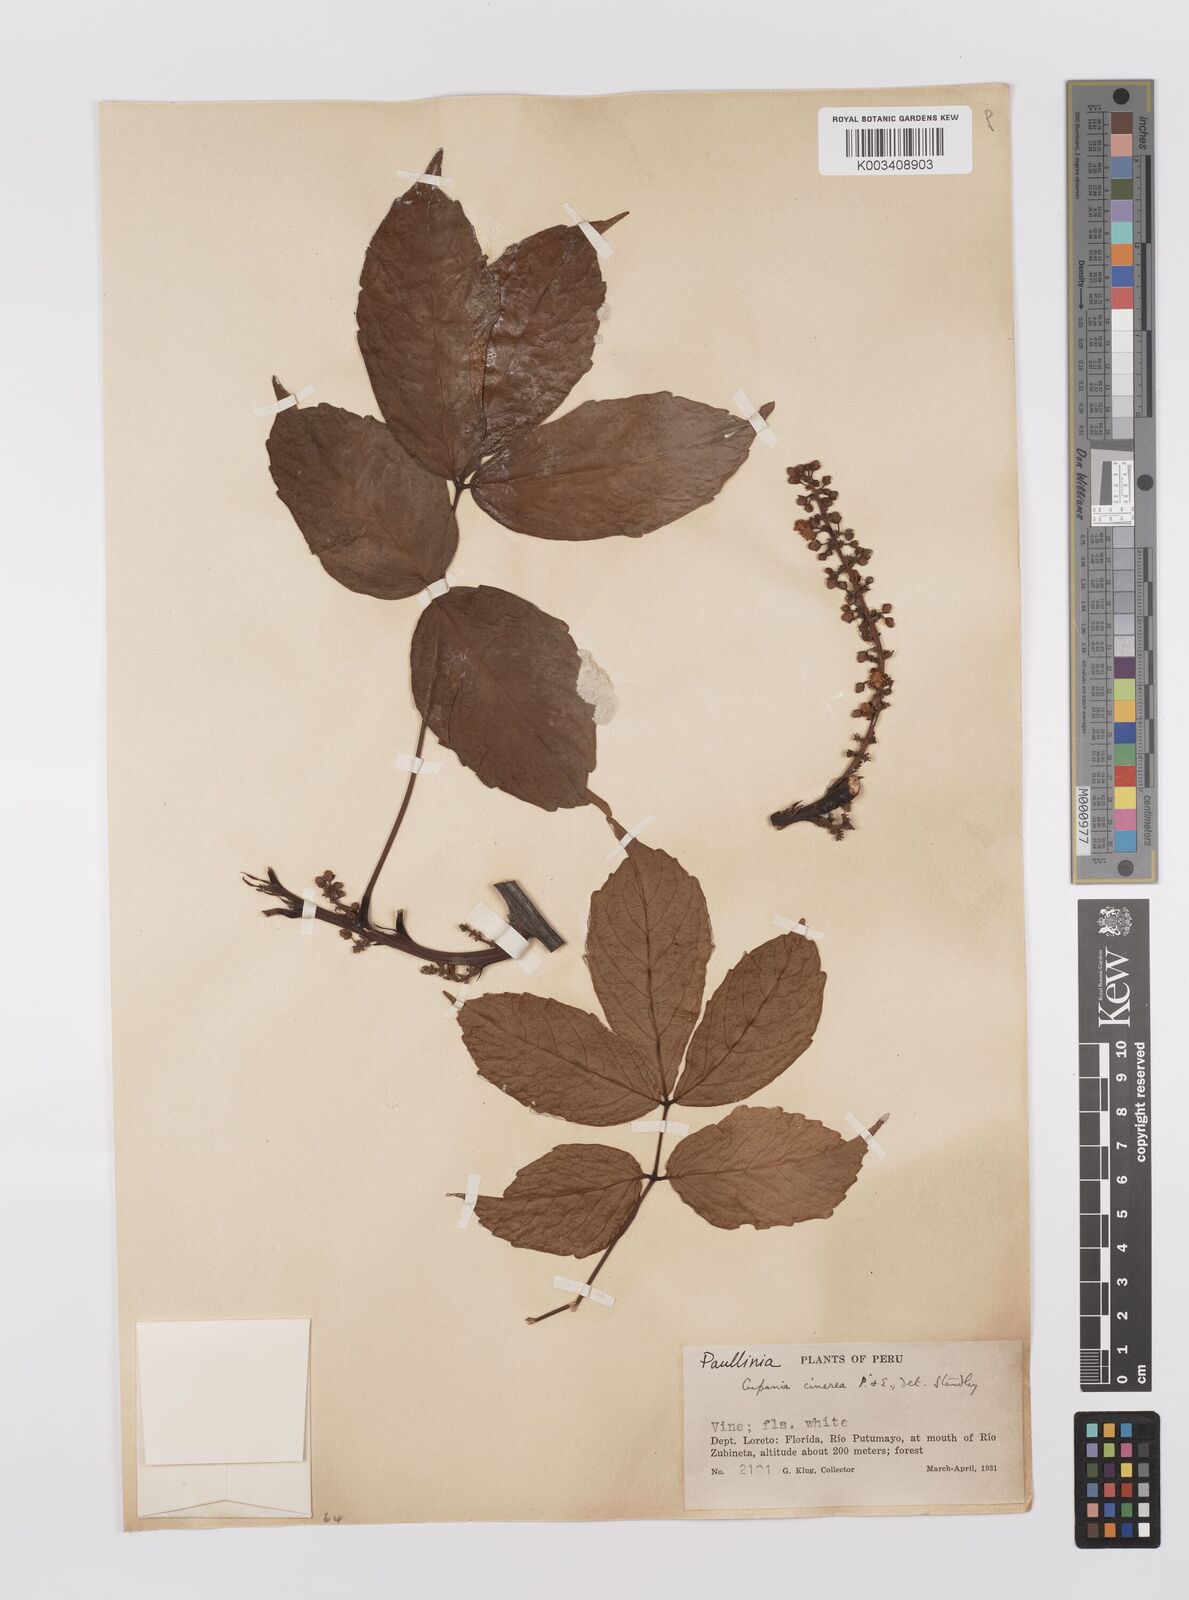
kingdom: Plantae
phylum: Tracheophyta
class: Magnoliopsida
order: Sapindales
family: Sapindaceae
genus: Paullinia
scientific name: Paullinia
